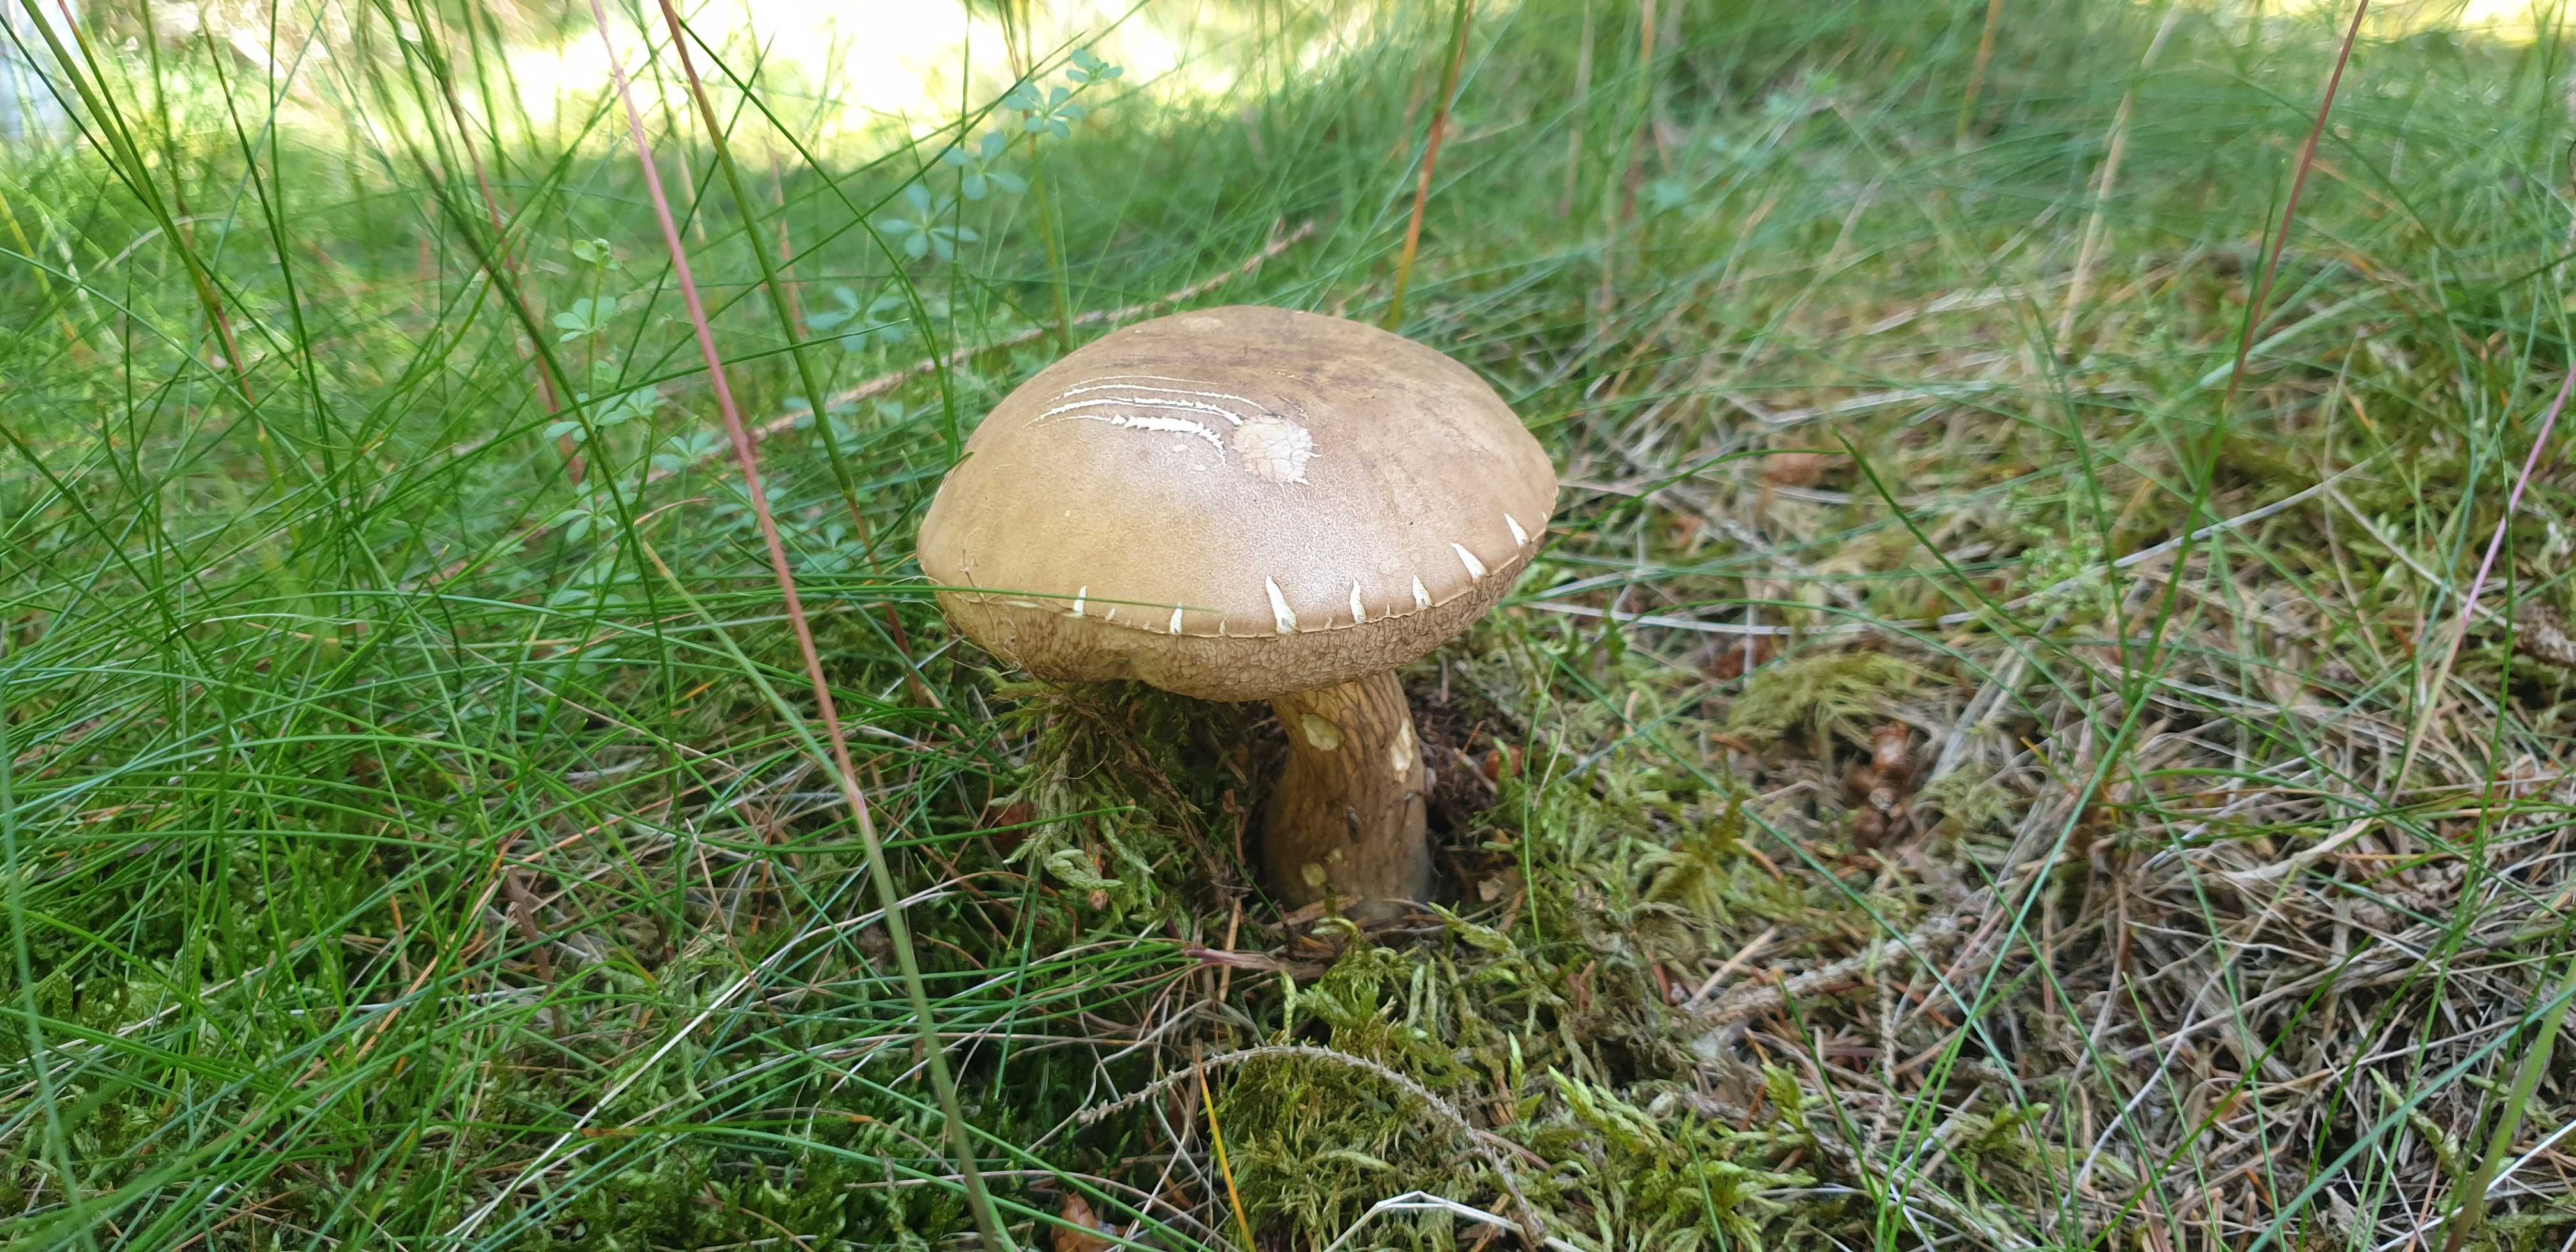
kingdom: Fungi
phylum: Basidiomycota
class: Agaricomycetes
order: Boletales
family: Boletaceae
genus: Tylopilus
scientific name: Tylopilus felleus
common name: galderørhat
